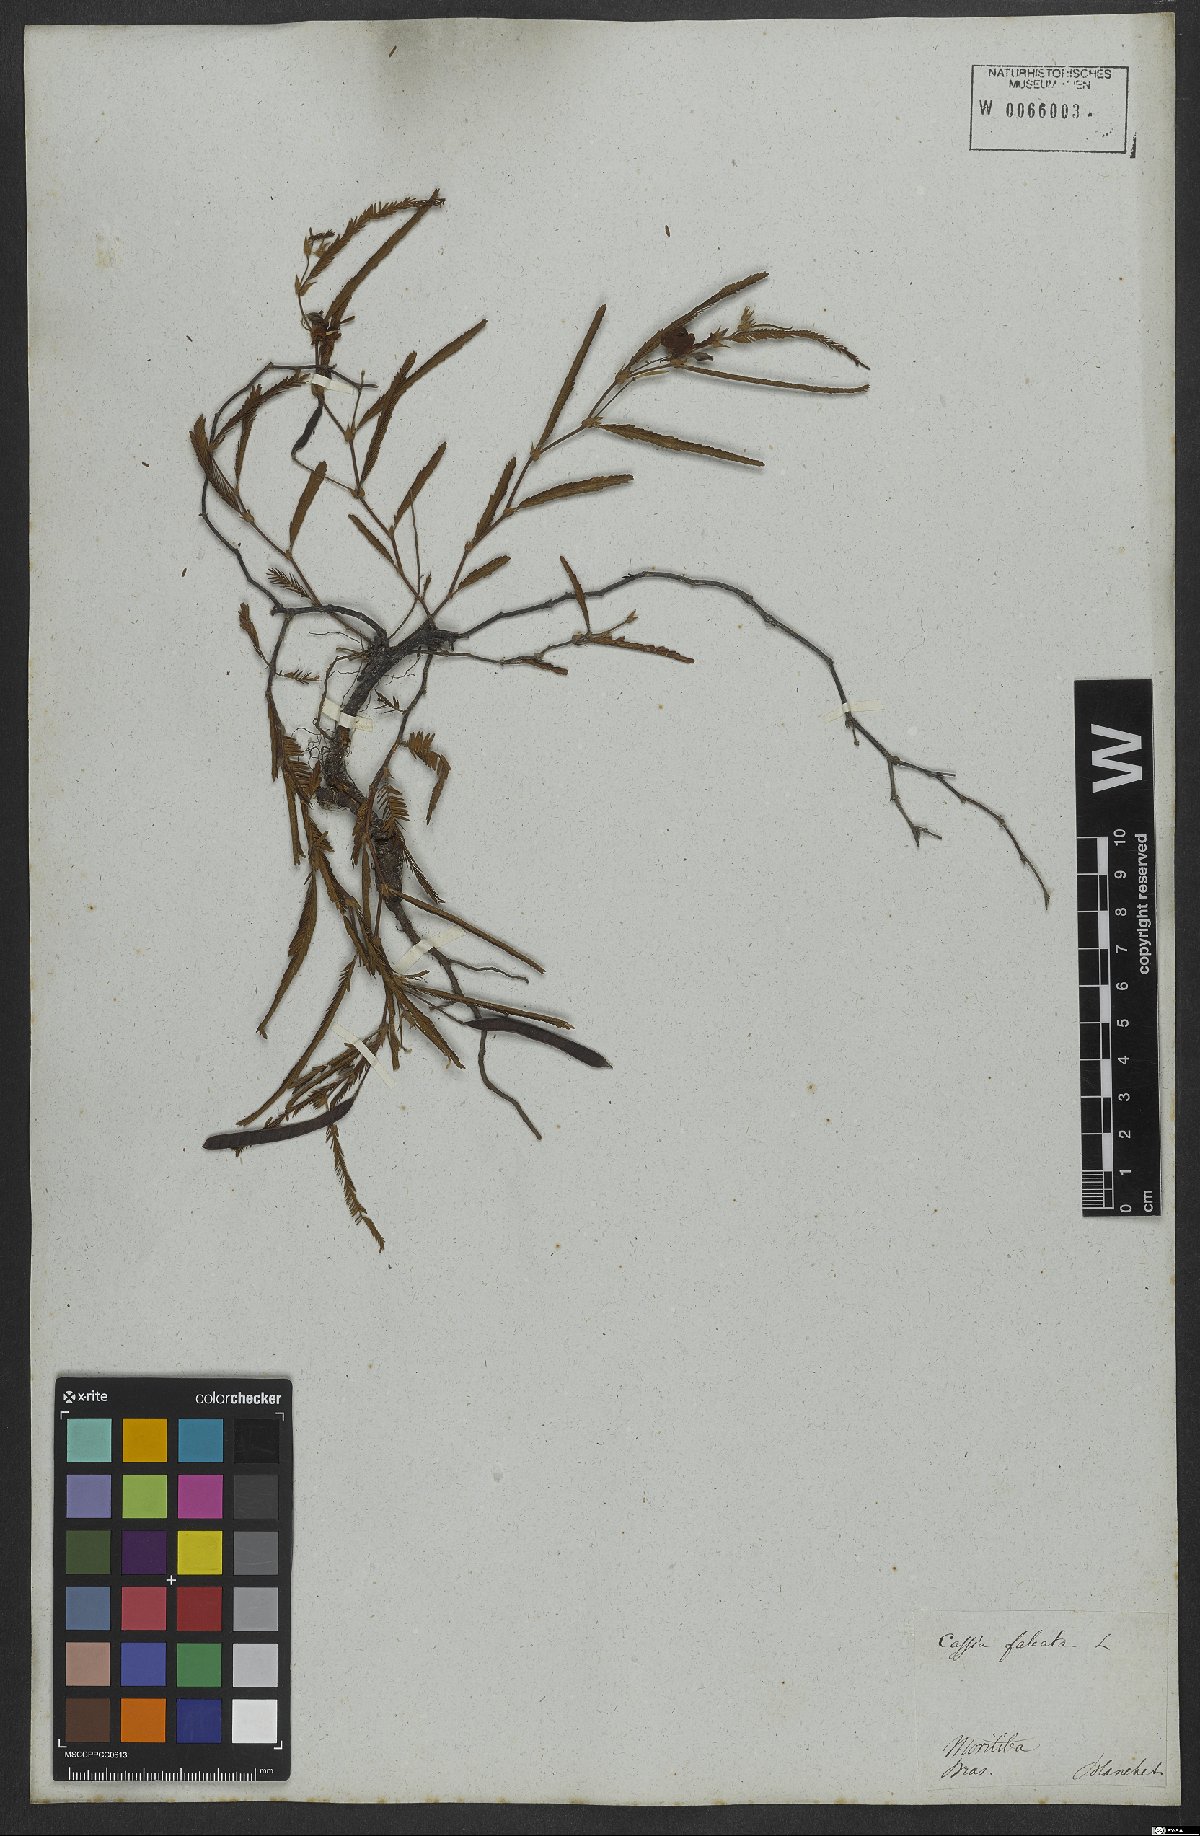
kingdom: Plantae
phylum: Tracheophyta
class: Magnoliopsida
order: Fabales
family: Fabaceae
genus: Chamaecrista
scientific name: Chamaecrista flexuosa
